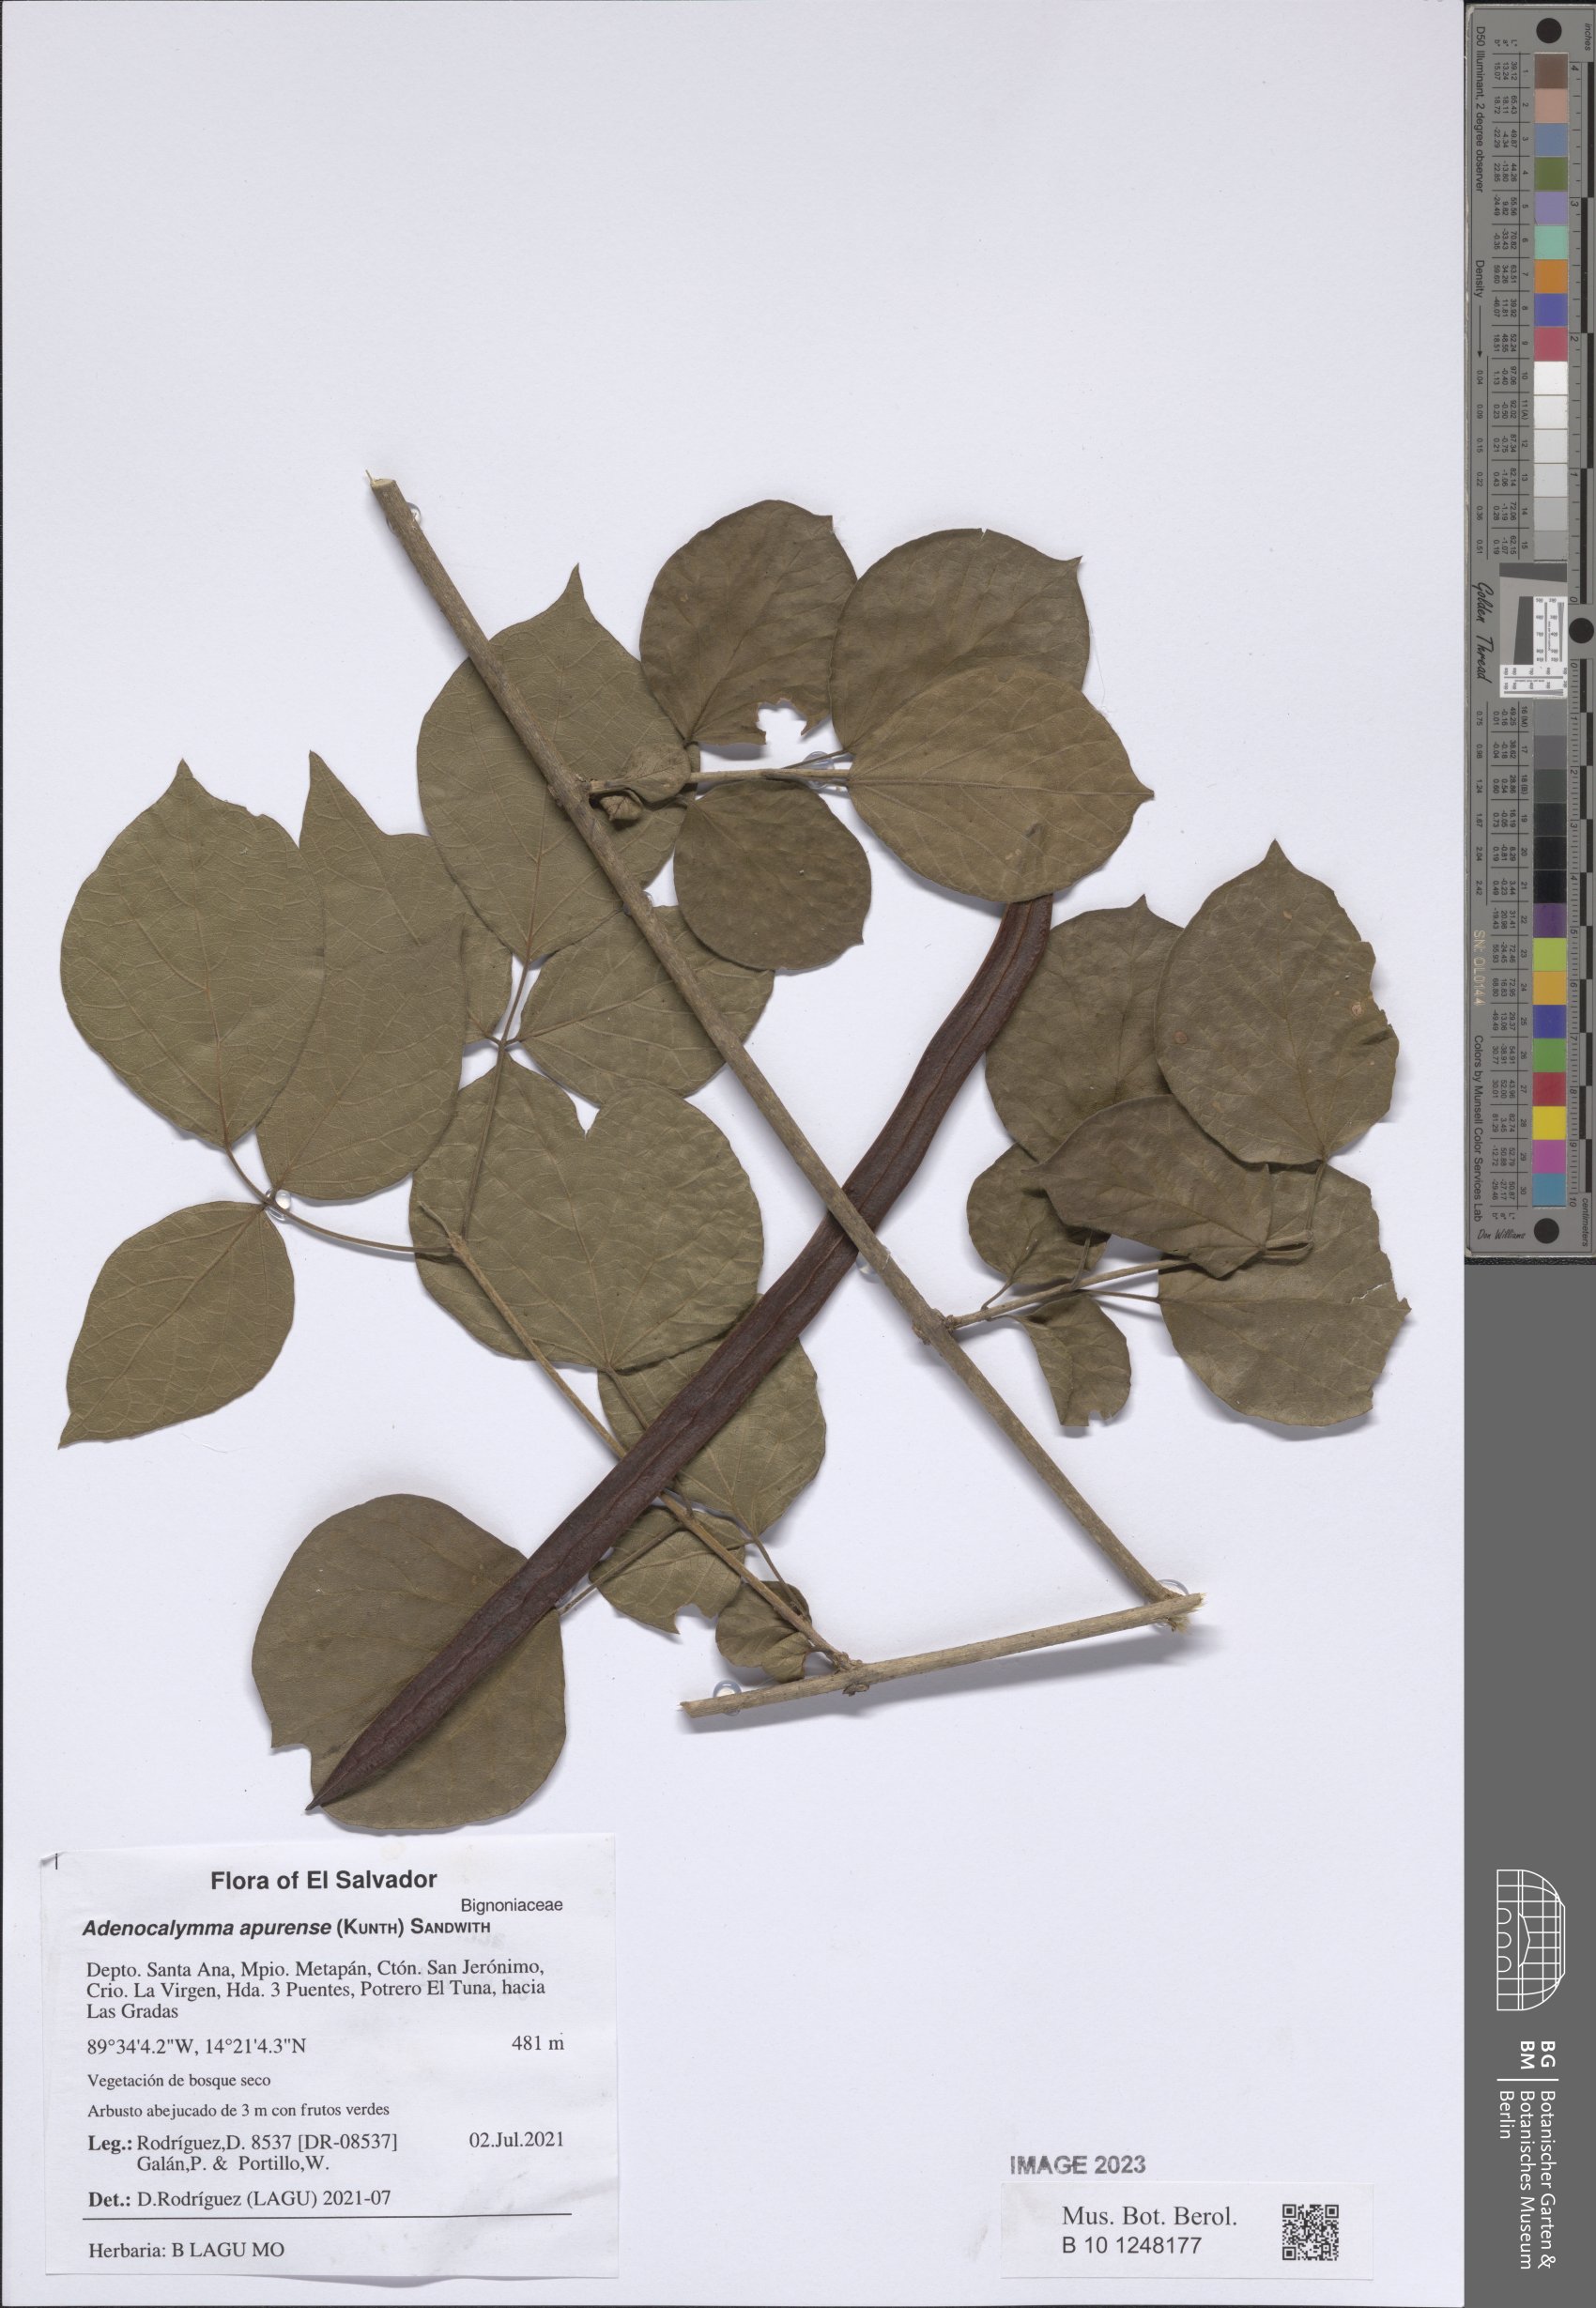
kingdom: Plantae
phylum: Tracheophyta
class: Magnoliopsida
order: Lamiales
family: Bignoniaceae
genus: Adenocalymma
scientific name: Adenocalymma apurense
